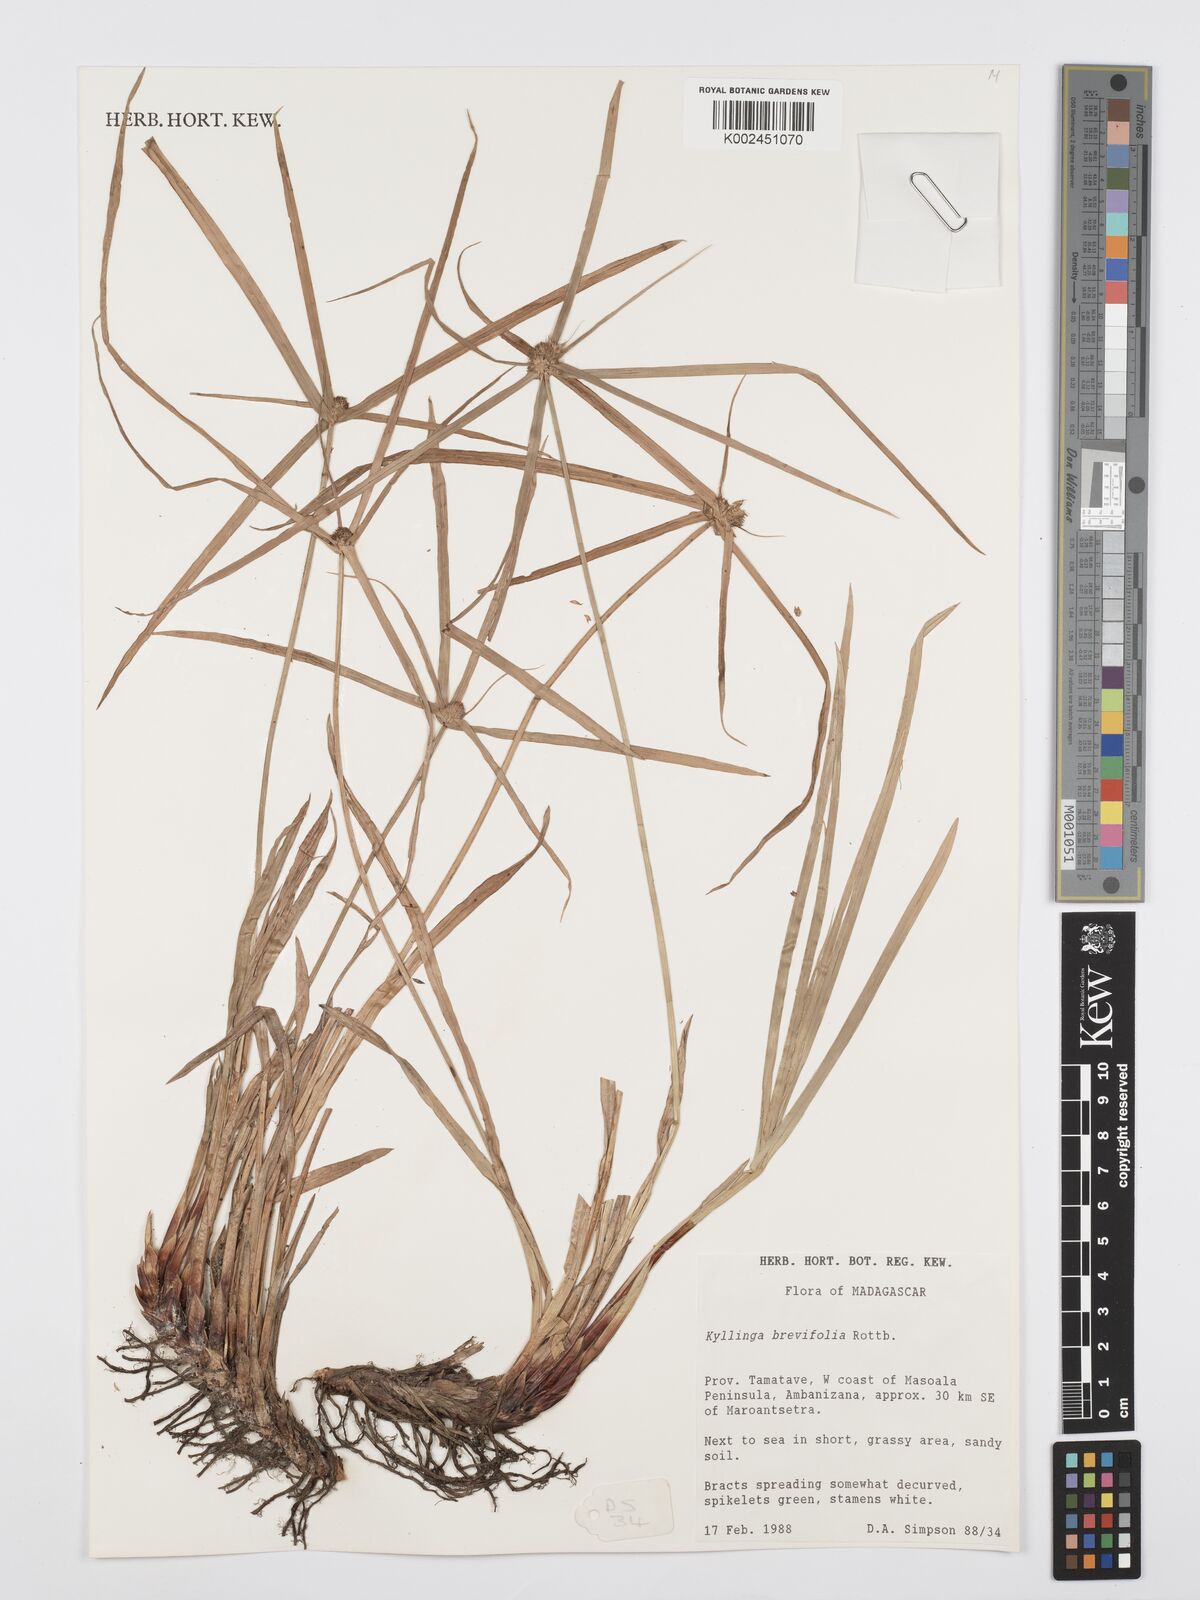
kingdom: Plantae
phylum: Tracheophyta
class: Liliopsida
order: Poales
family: Cyperaceae
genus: Cyperus
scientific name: Cyperus brevifolius
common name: Globe kyllinga
